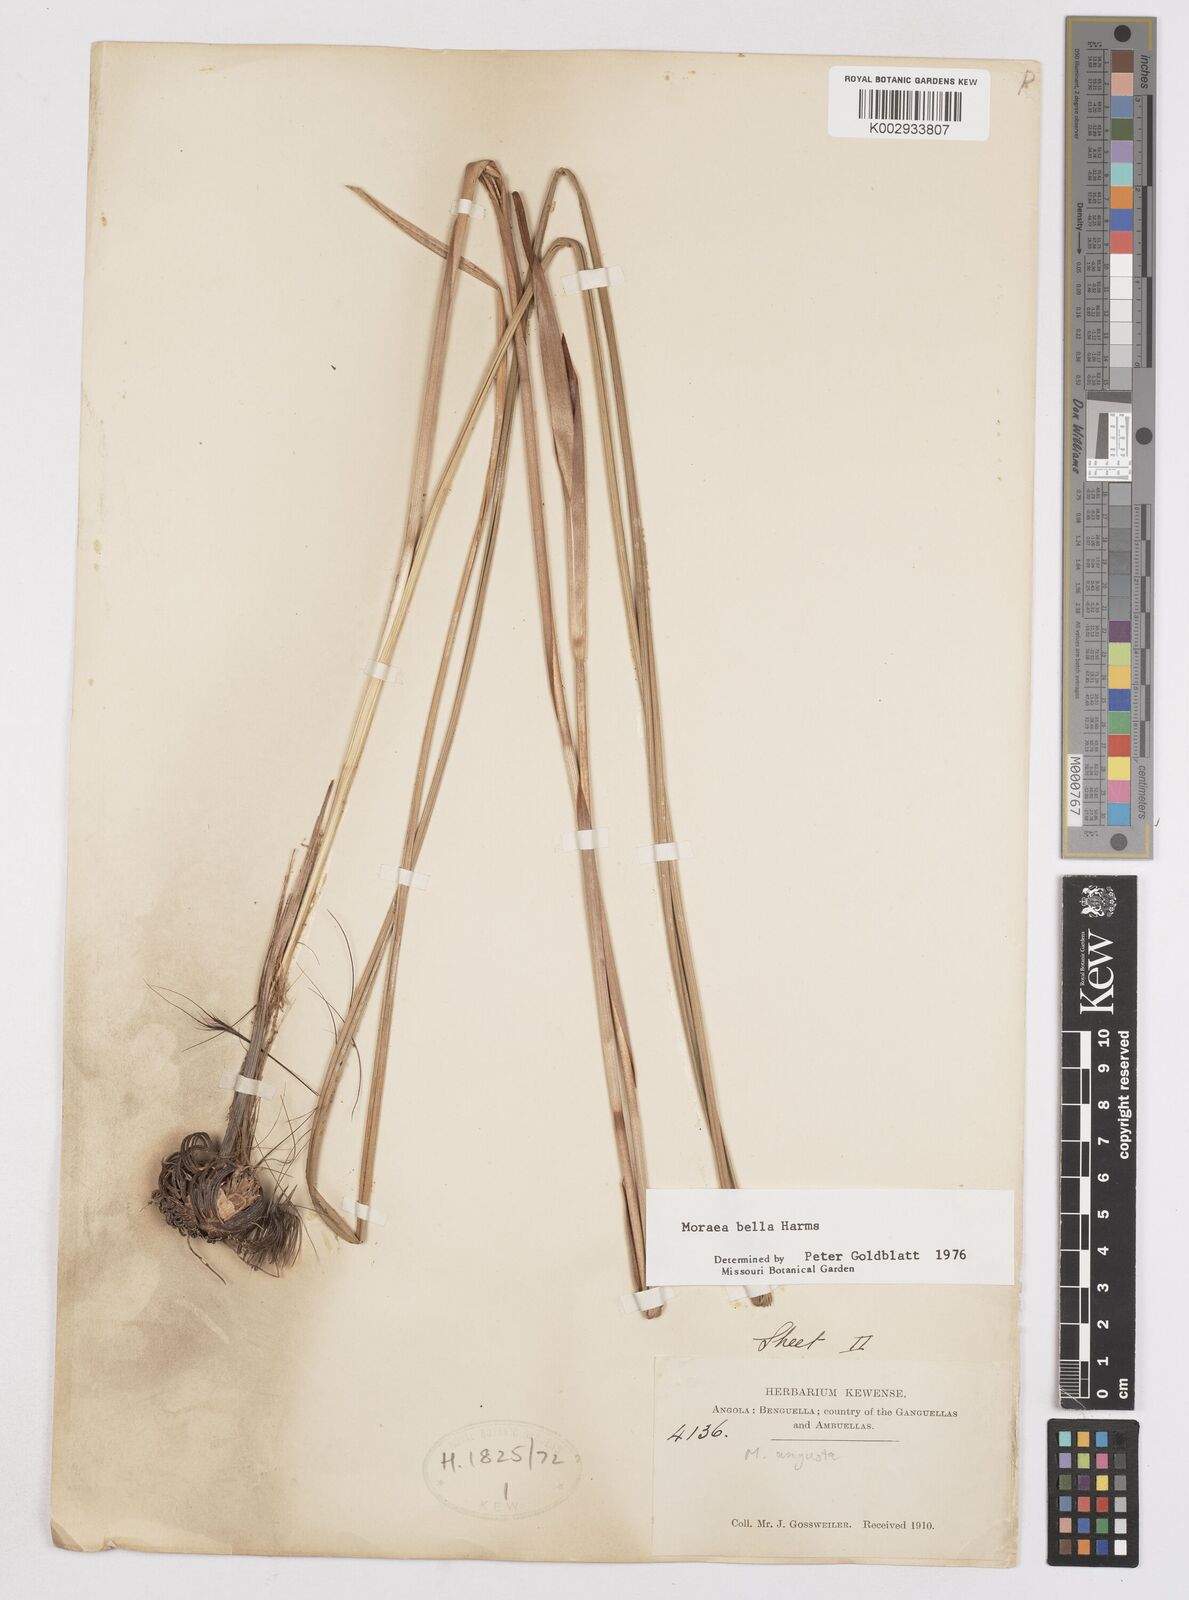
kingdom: Plantae
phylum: Tracheophyta
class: Liliopsida
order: Asparagales
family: Iridaceae
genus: Moraea
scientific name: Moraea bella
